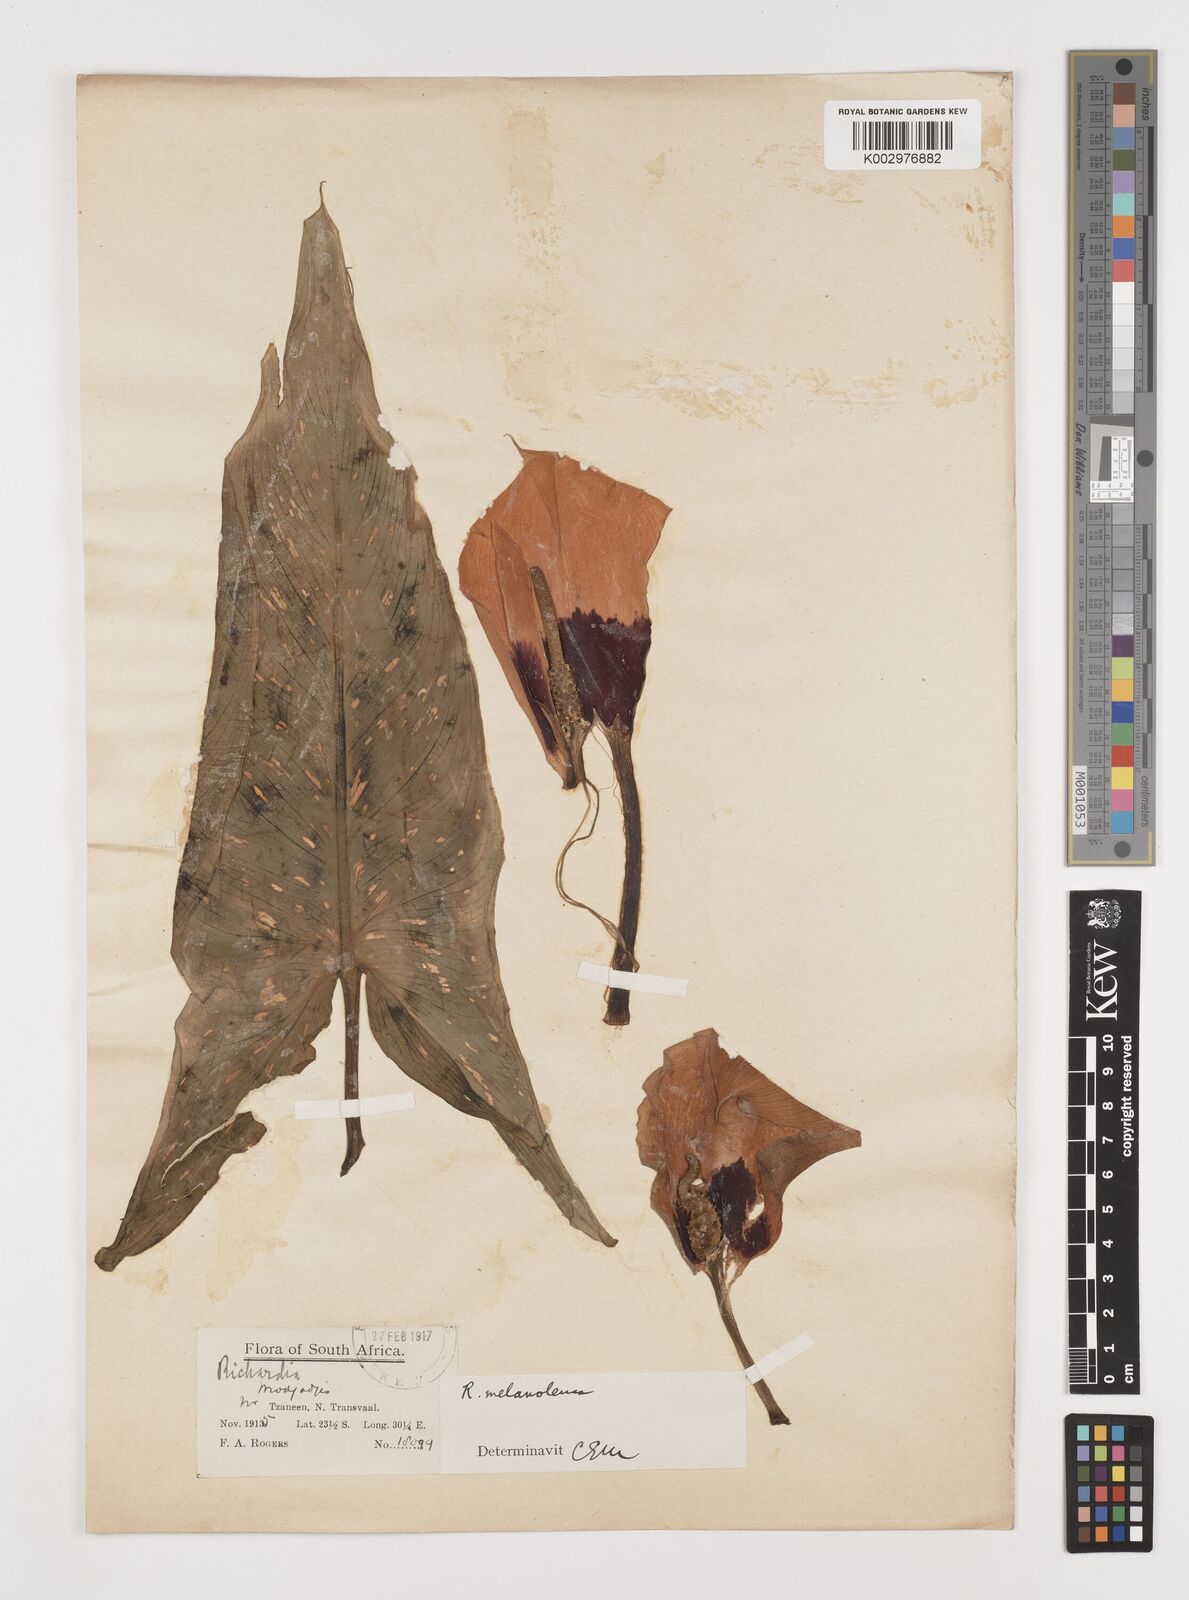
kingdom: Plantae
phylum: Tracheophyta
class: Liliopsida
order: Alismatales
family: Araceae
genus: Zantedeschia
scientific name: Zantedeschia albomaculata
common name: Spotted calla lily
